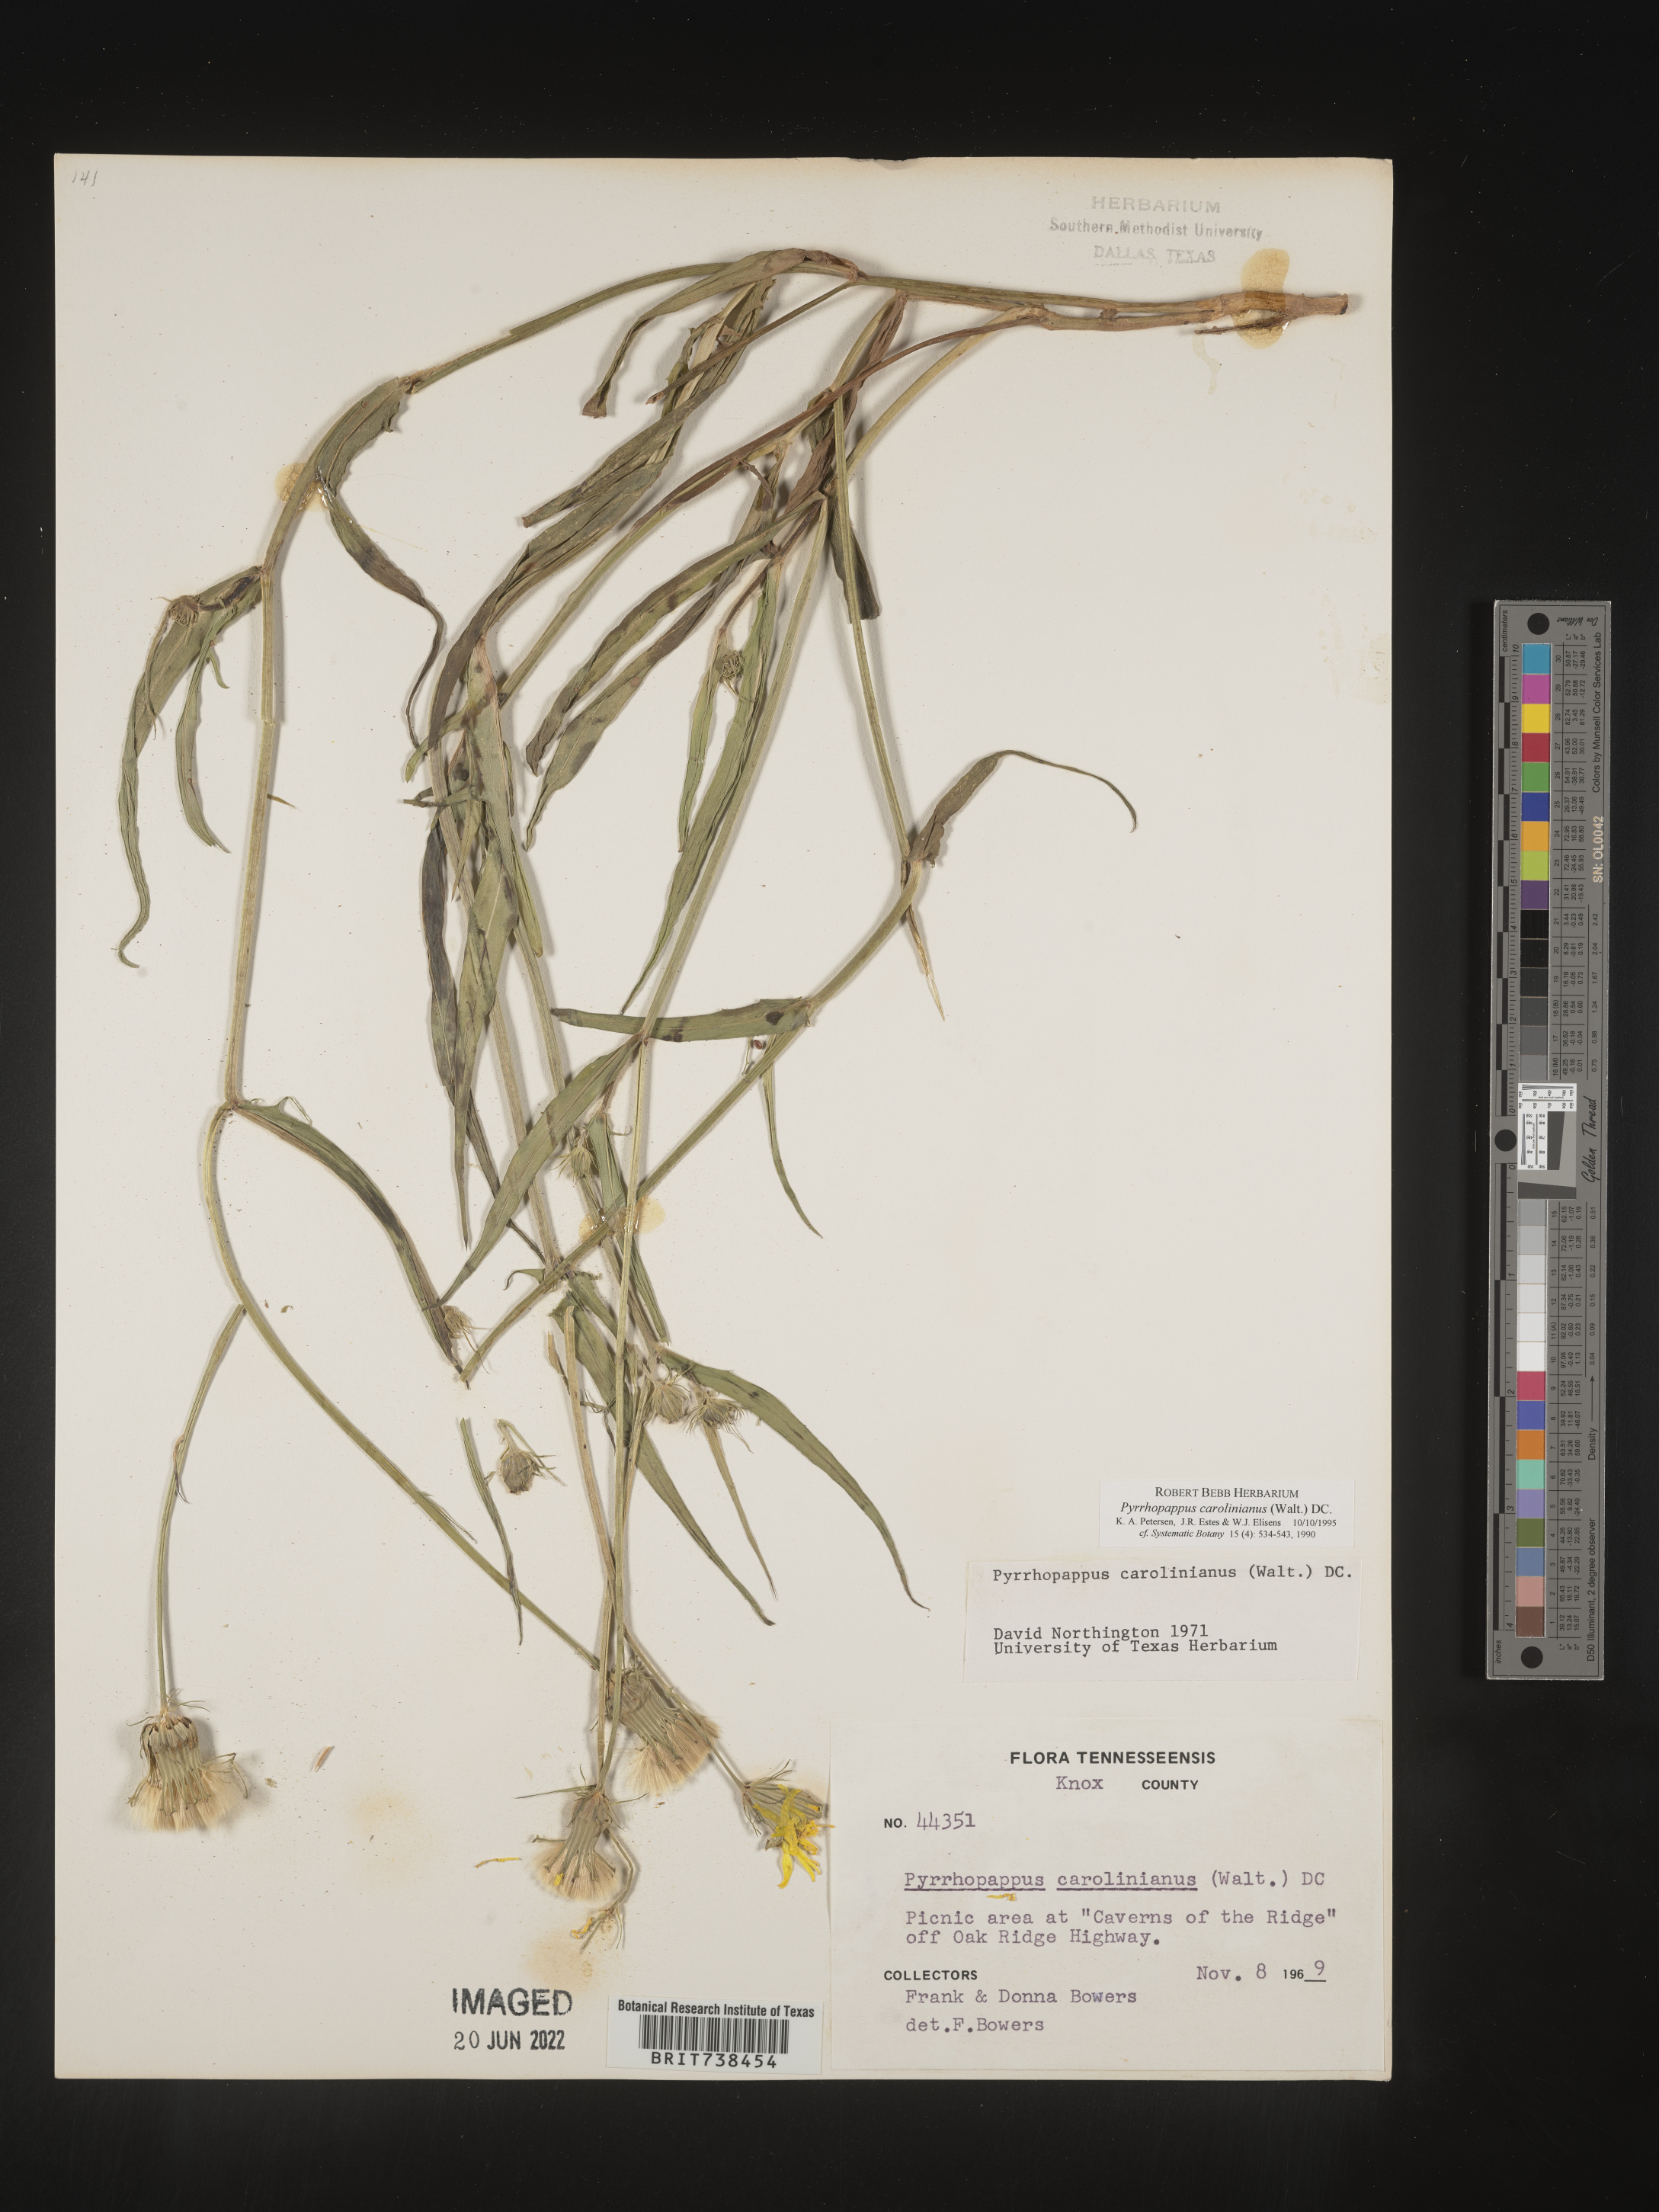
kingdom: Plantae
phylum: Tracheophyta
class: Magnoliopsida
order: Asterales
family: Asteraceae
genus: Pyrrhopappus
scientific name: Pyrrhopappus carolinianus
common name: Carolina desert-chicory
